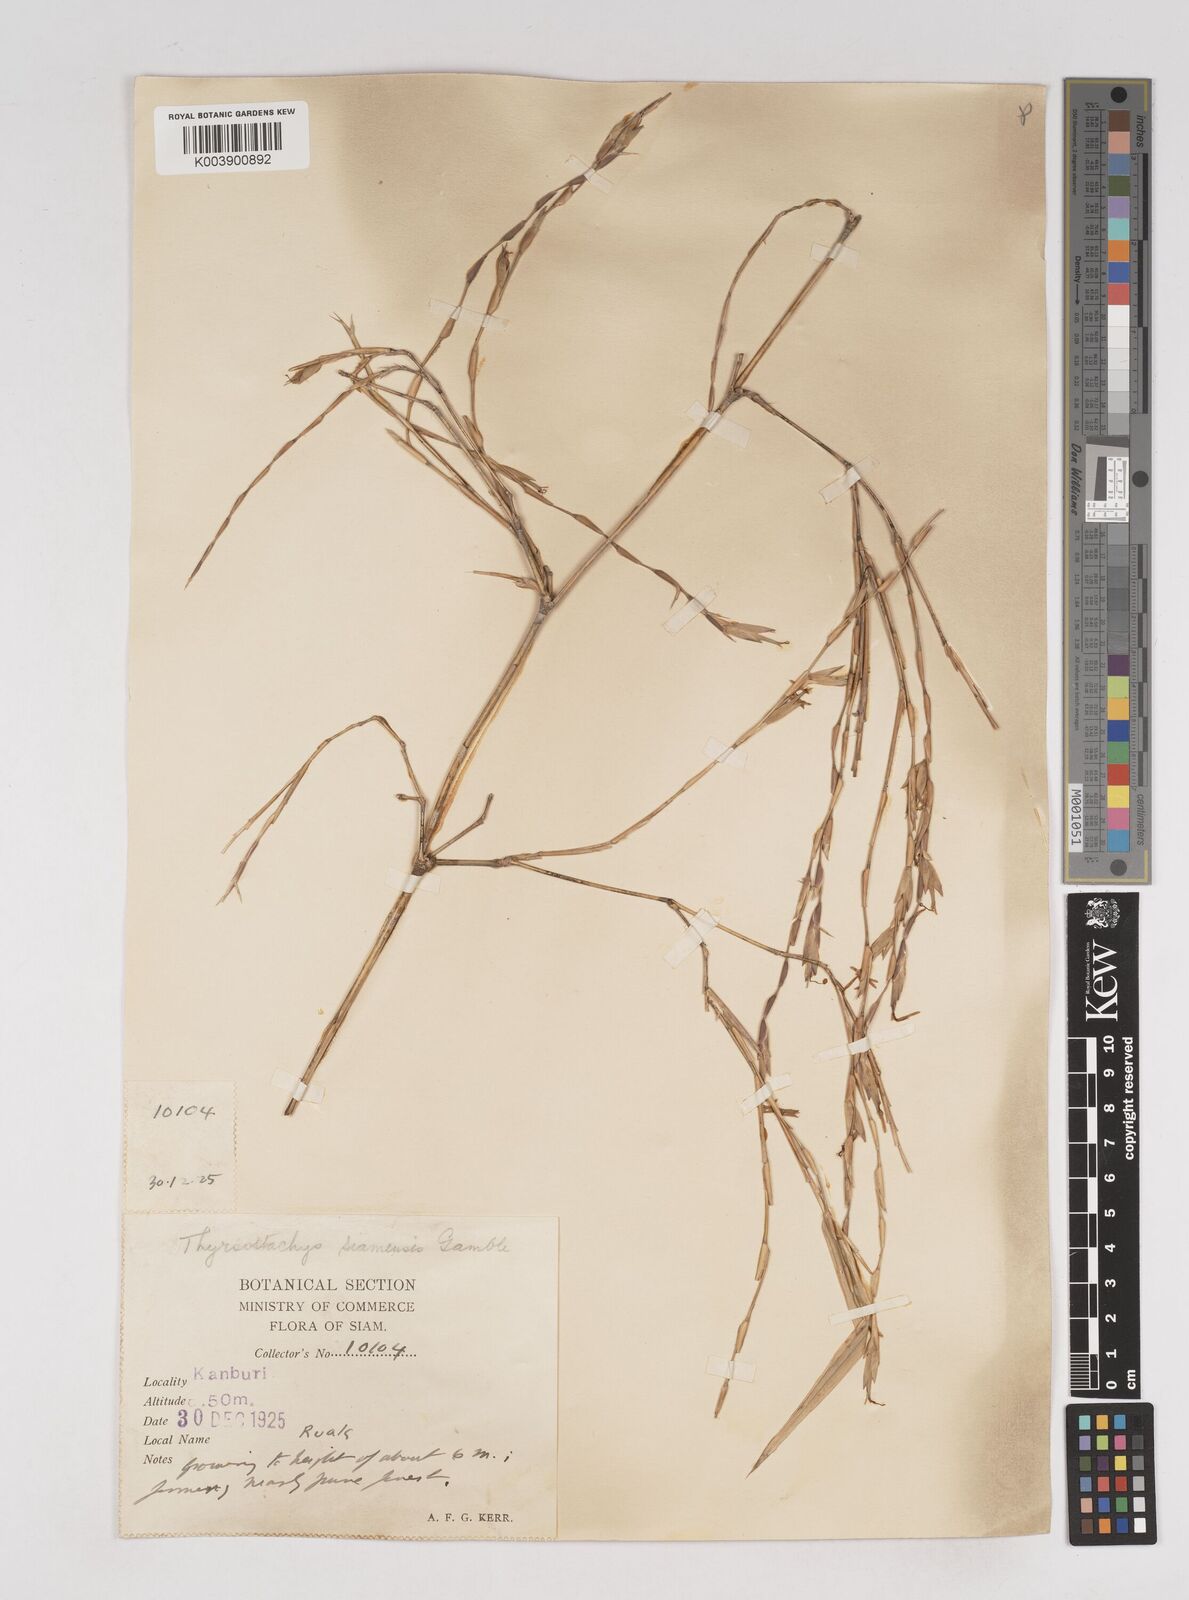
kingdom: Plantae
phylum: Tracheophyta
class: Liliopsida
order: Poales
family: Poaceae
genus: Thyrsostachys
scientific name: Thyrsostachys siamensis
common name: Thailand bamboo
